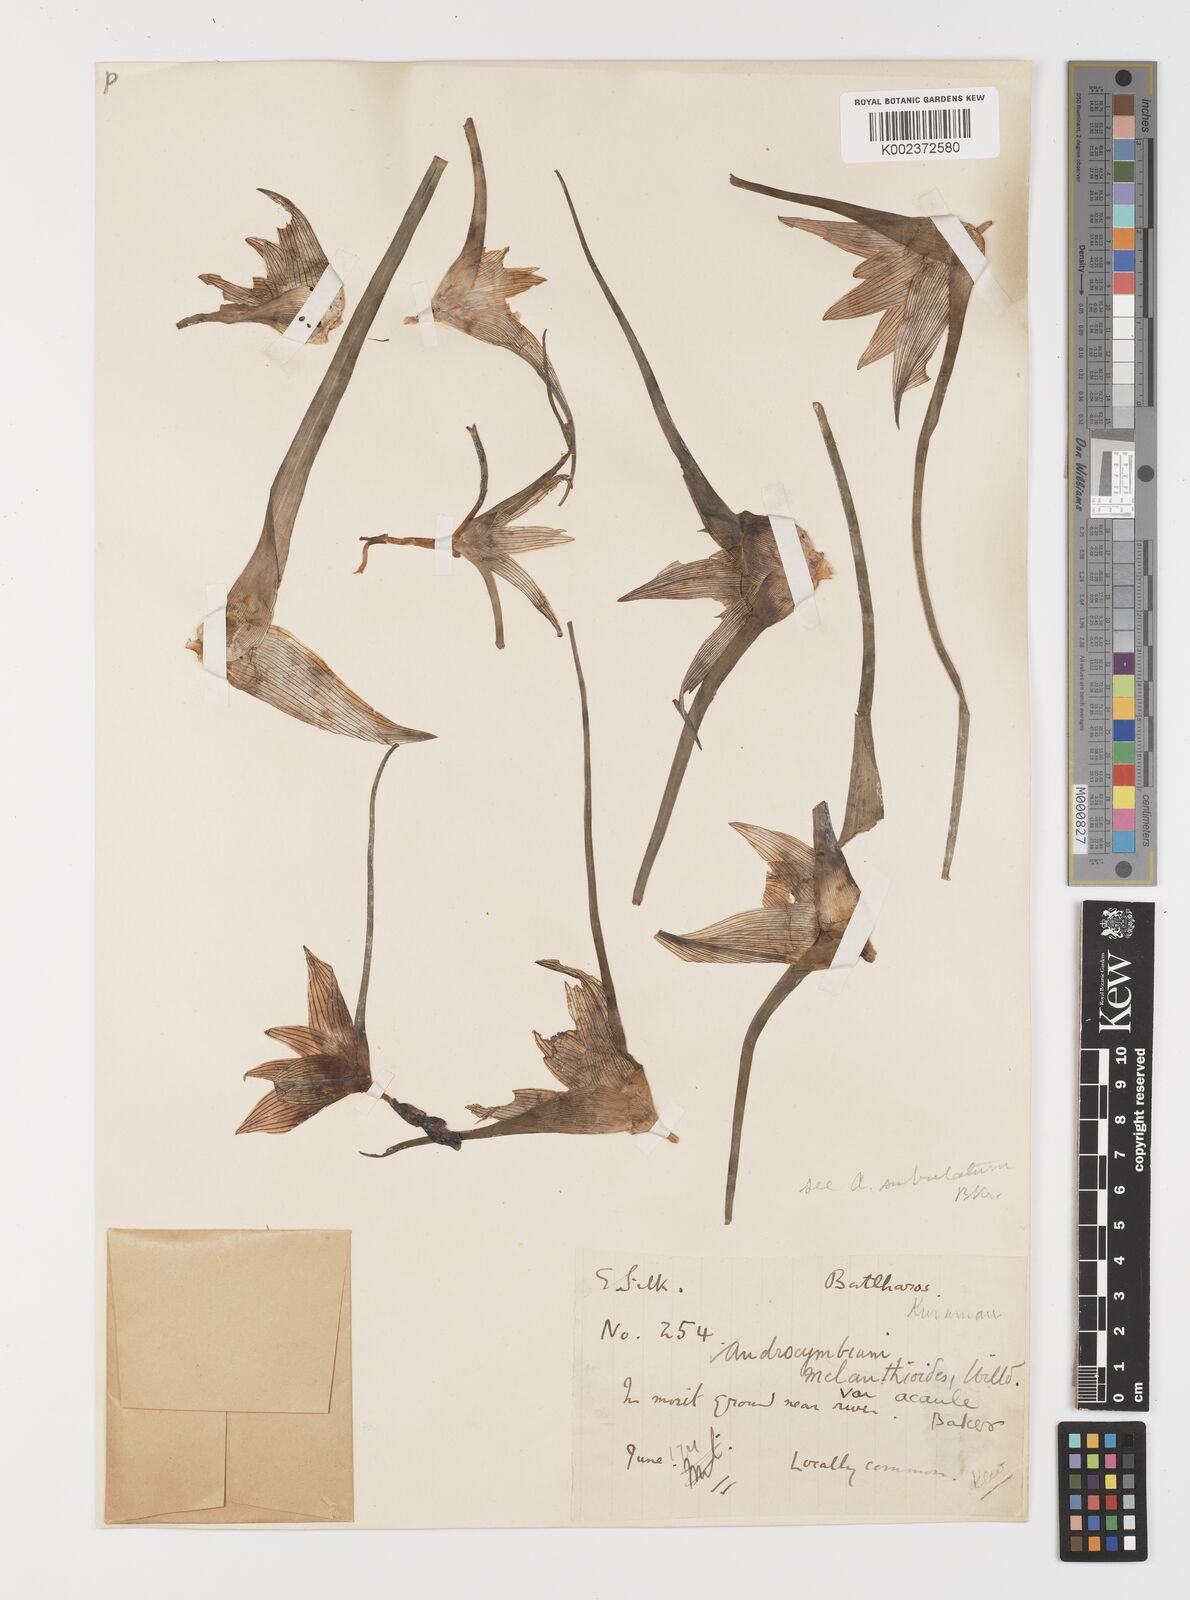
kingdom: Plantae
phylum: Tracheophyta
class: Liliopsida
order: Liliales
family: Colchicaceae
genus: Colchicum
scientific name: Colchicum melanthioides
